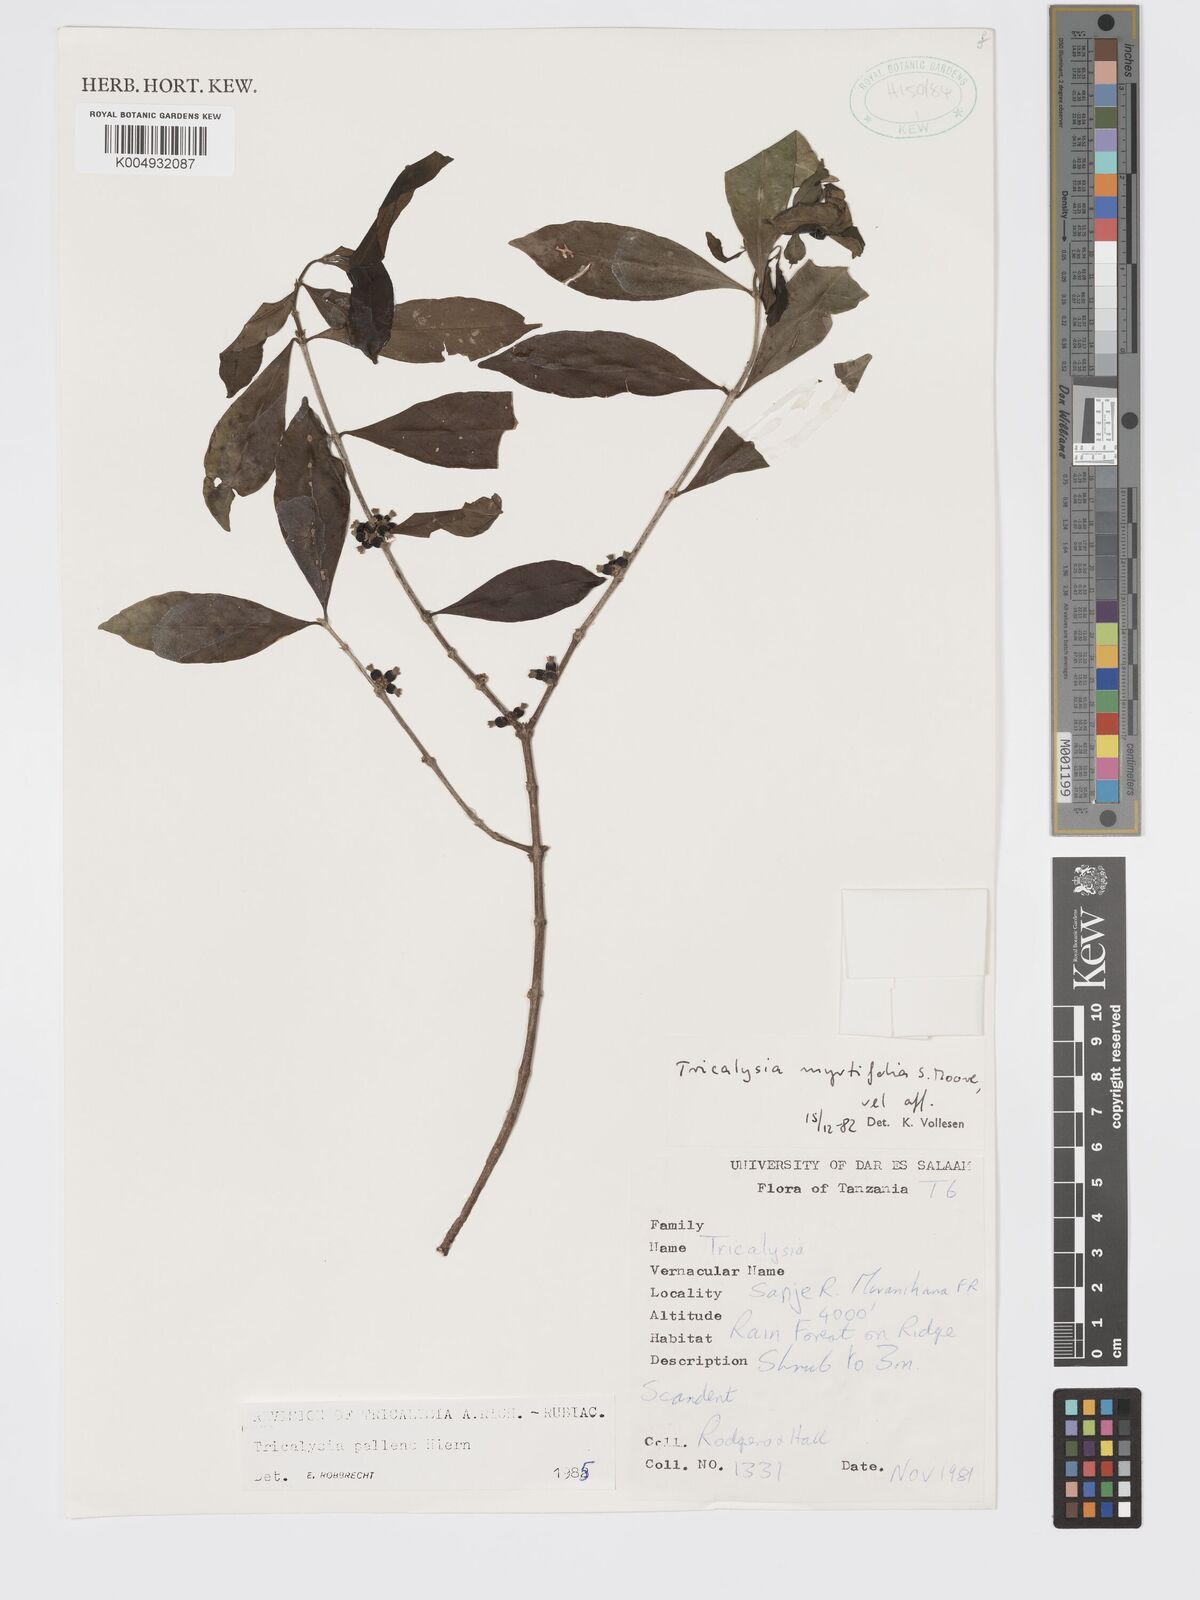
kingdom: Plantae
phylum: Tracheophyta
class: Magnoliopsida
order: Gentianales
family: Rubiaceae
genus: Tricalysia
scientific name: Tricalysia pallens
